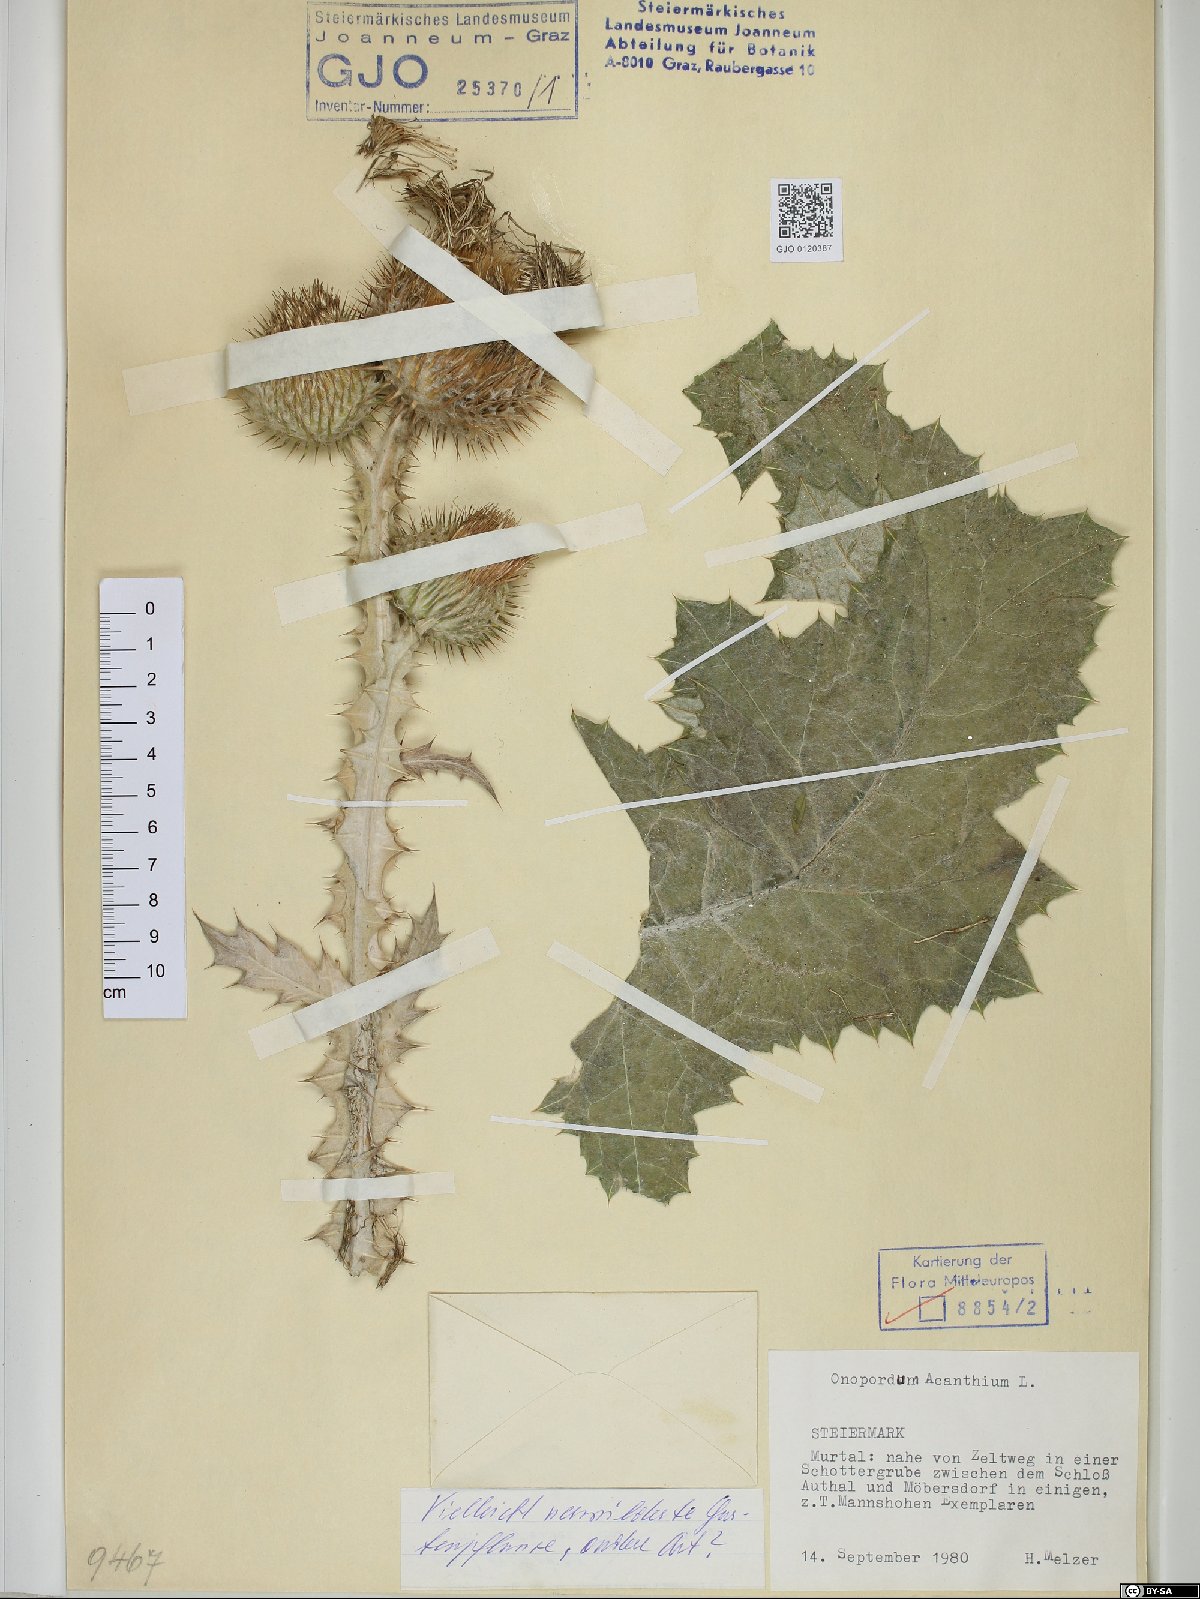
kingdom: Plantae
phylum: Tracheophyta
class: Magnoliopsida
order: Asterales
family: Asteraceae
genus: Onopordum
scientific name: Onopordum acanthium
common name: Scotch thistle
